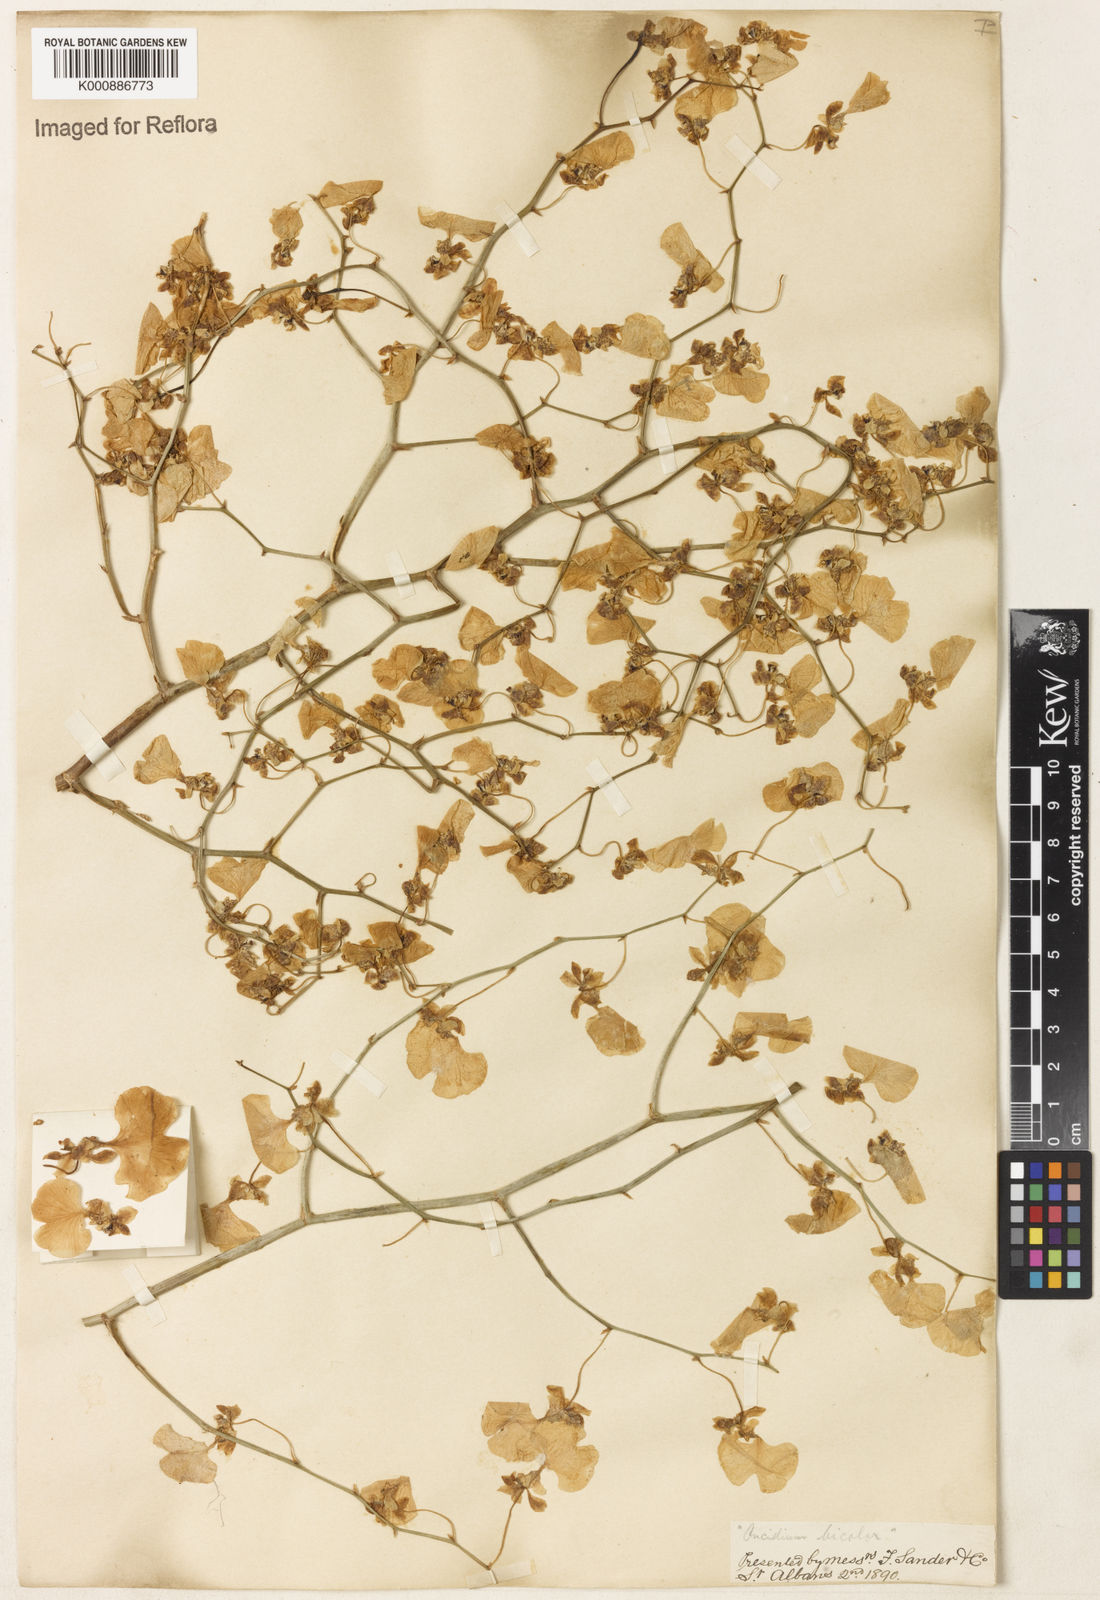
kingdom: Plantae
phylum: Tracheophyta
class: Liliopsida
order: Asparagales
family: Orchidaceae
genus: Gomesa
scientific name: Gomesa bicolor
